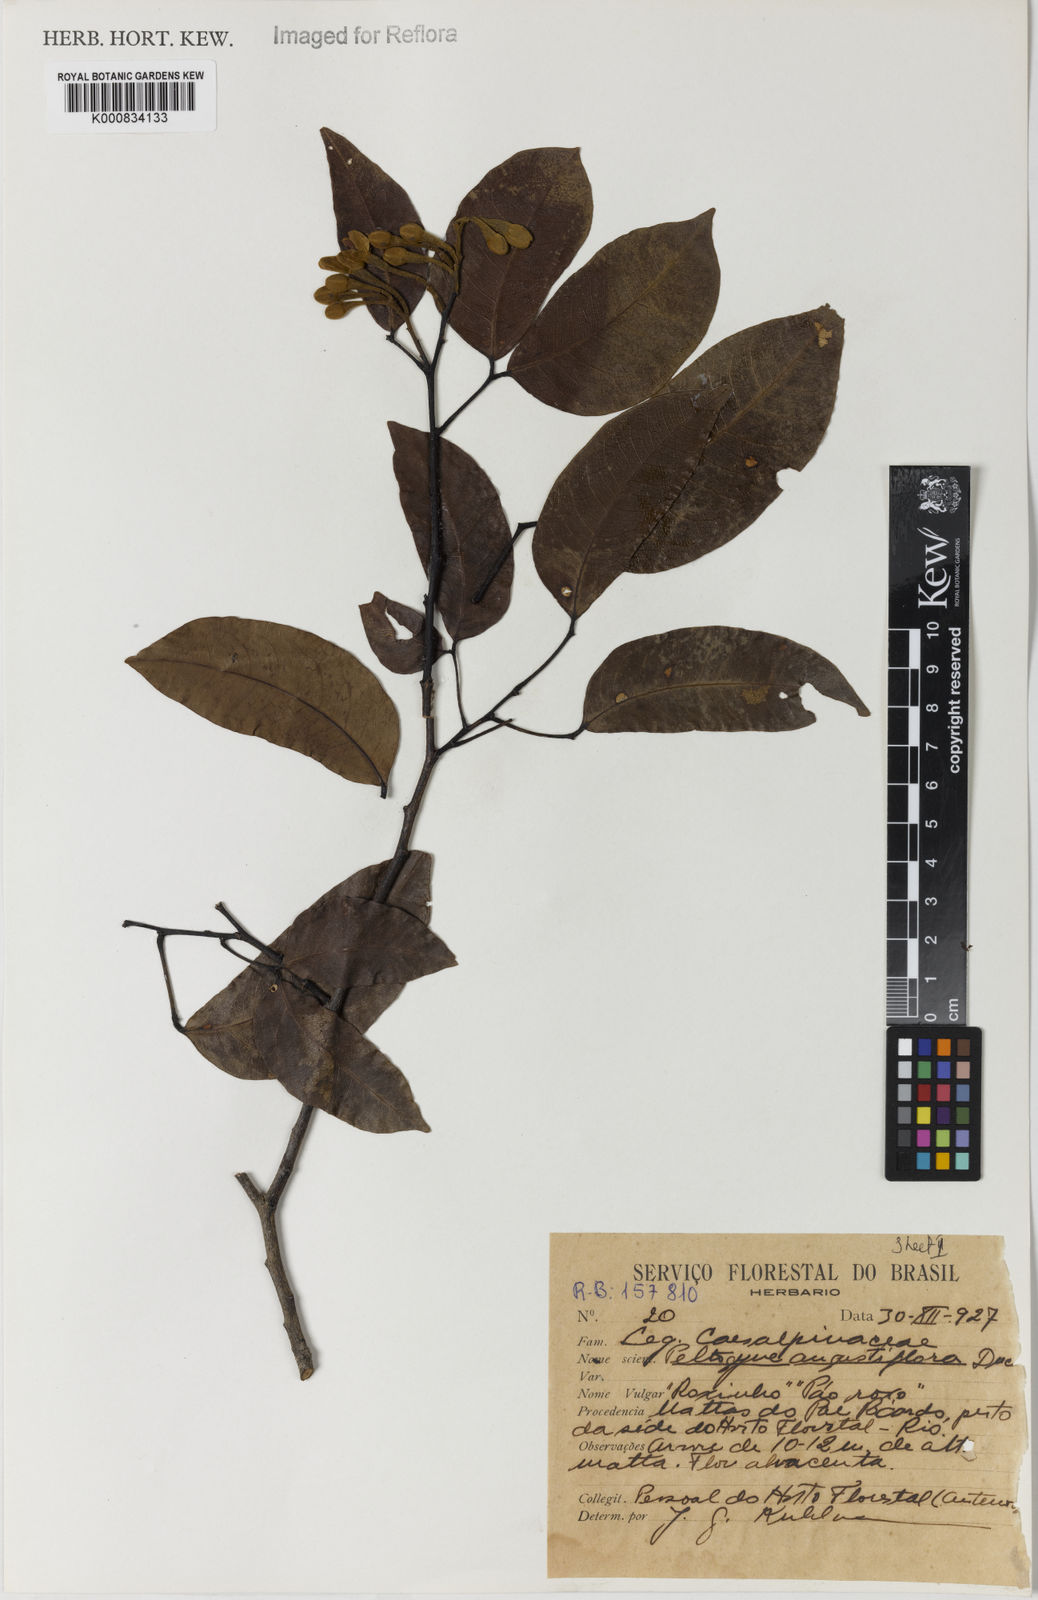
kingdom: Plantae
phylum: Tracheophyta
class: Magnoliopsida
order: Fabales
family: Fabaceae
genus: Peltogyne
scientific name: Peltogyne angustiflora
